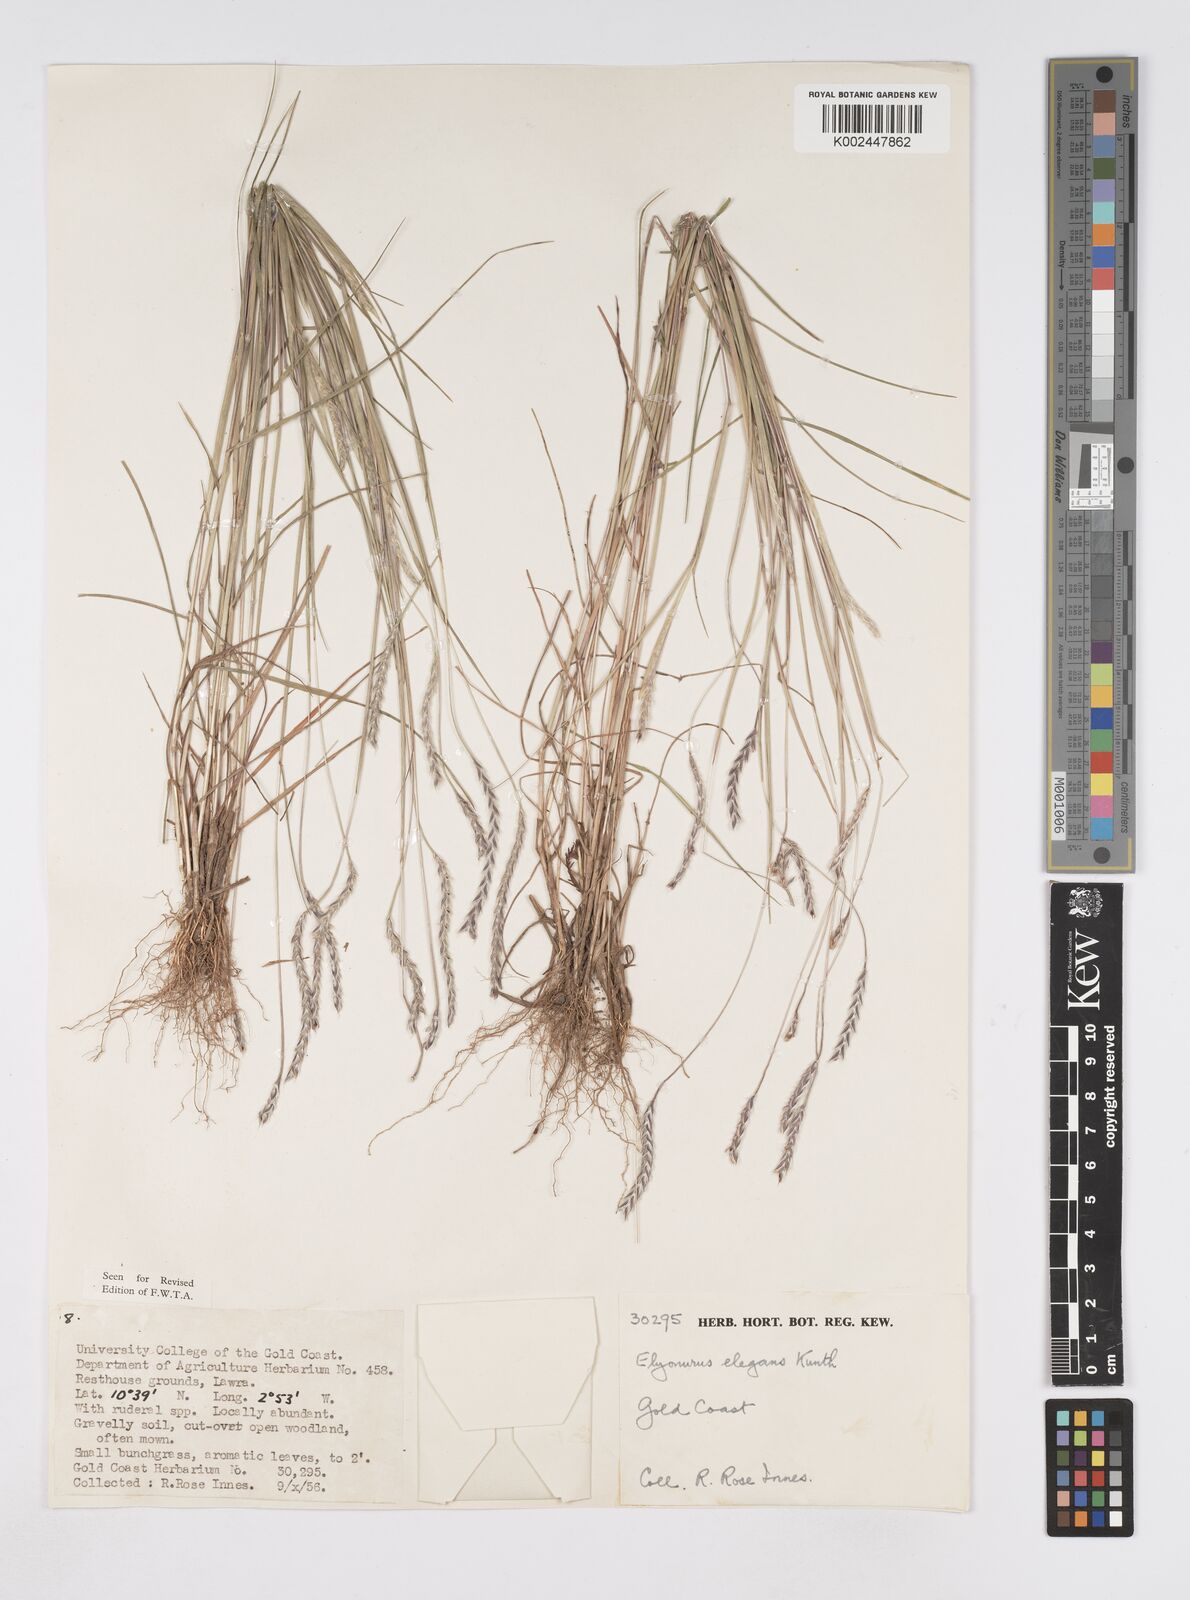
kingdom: Plantae
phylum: Tracheophyta
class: Liliopsida
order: Poales
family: Poaceae
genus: Elionurus
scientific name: Elionurus elegans
